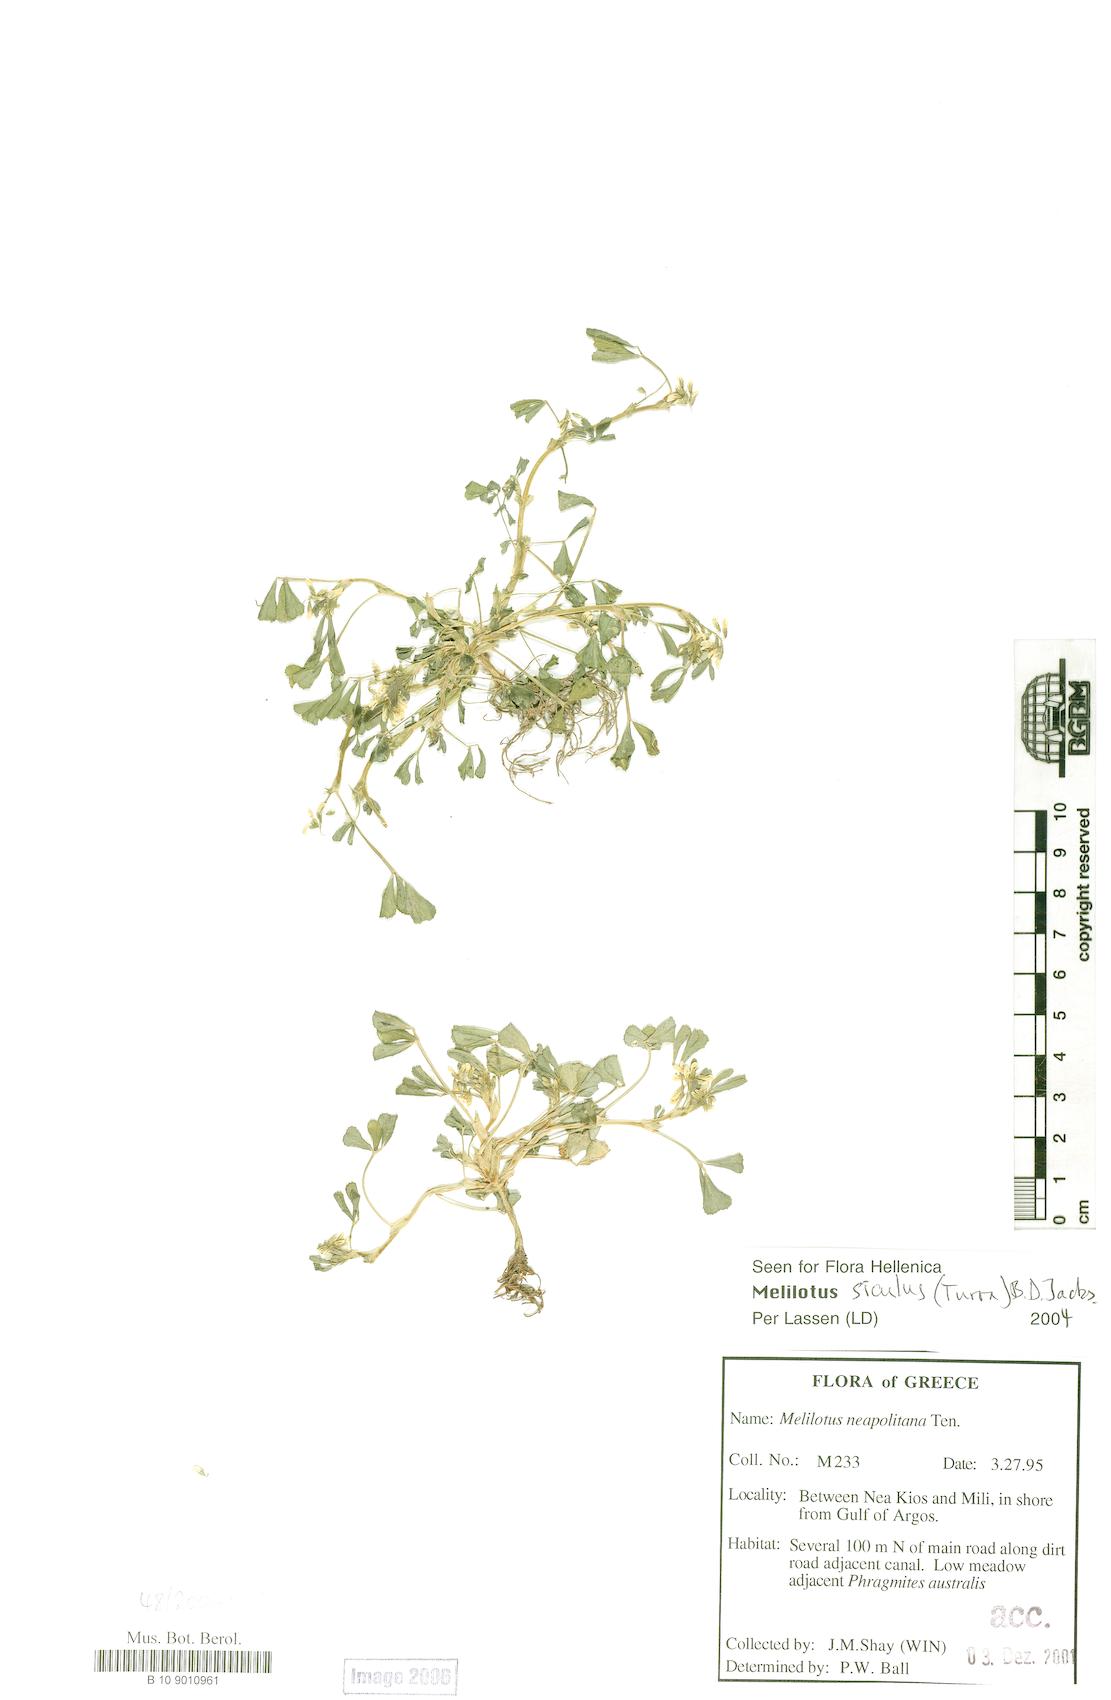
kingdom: Plantae
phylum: Tracheophyta
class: Magnoliopsida
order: Fabales
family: Fabaceae
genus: Melilotus
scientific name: Melilotus siculus
